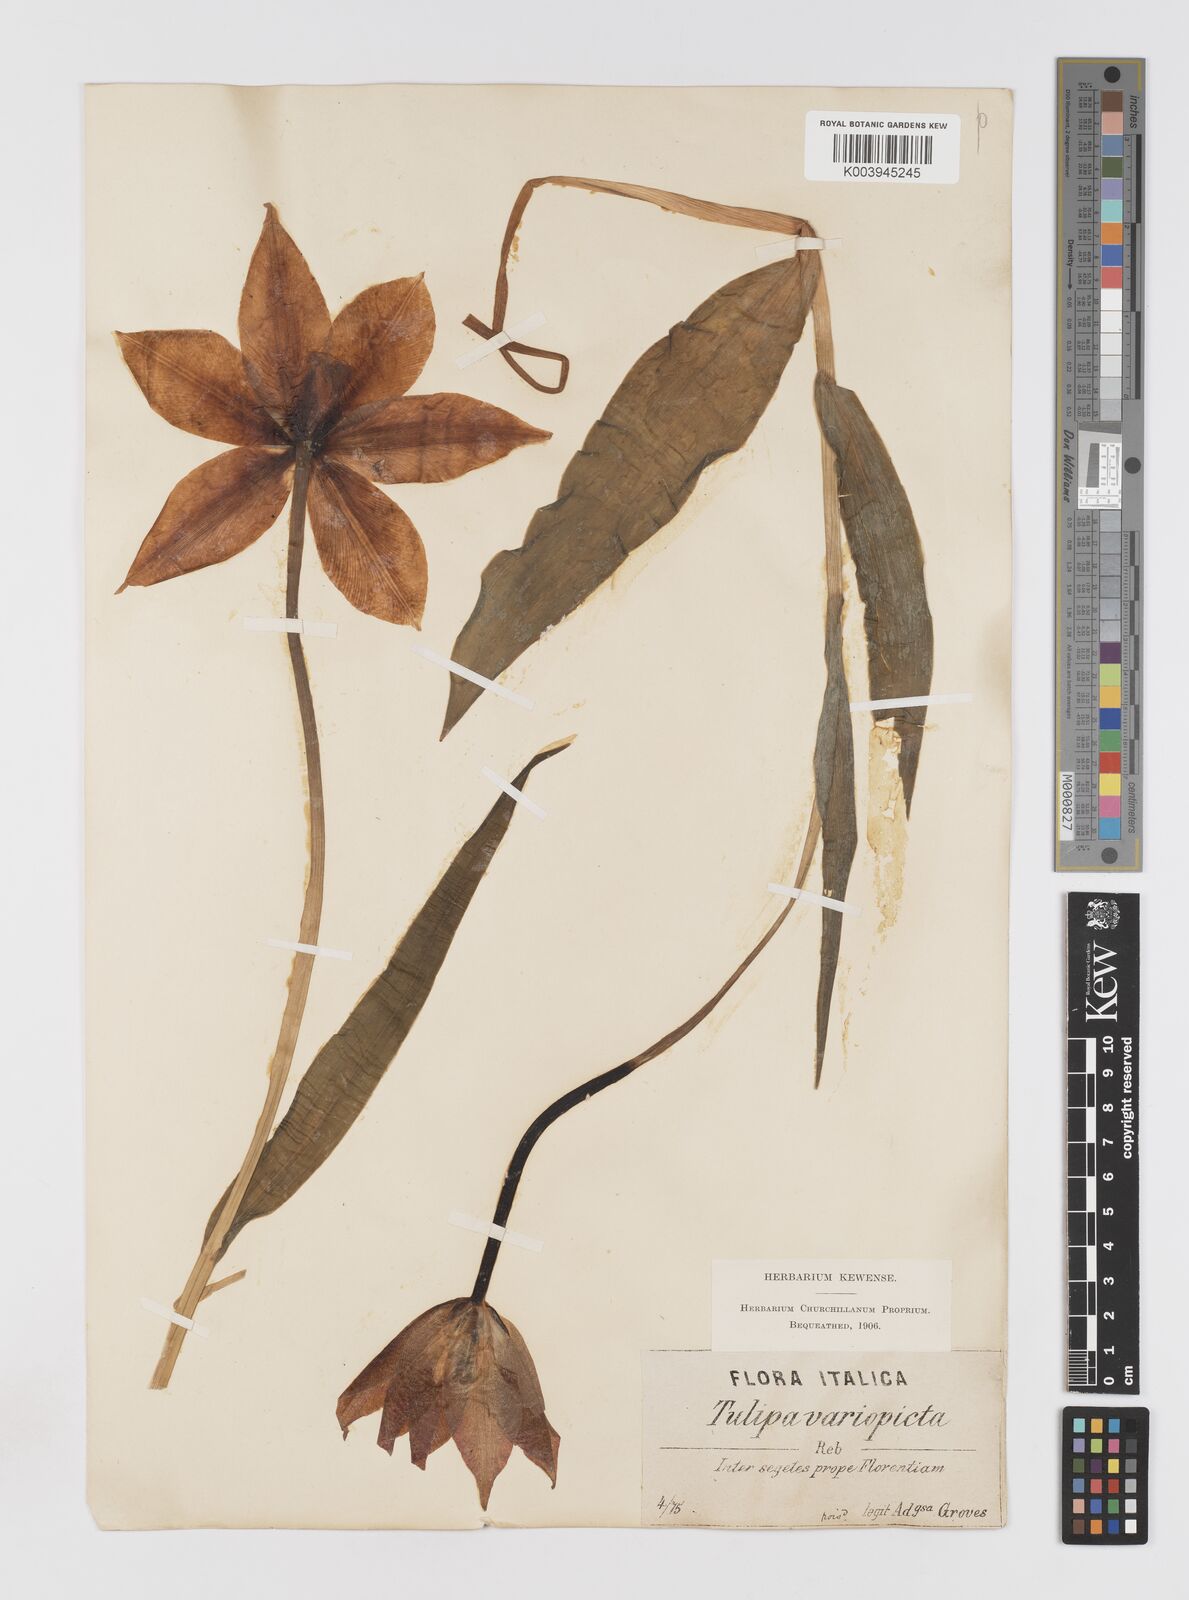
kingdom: Plantae
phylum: Tracheophyta
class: Liliopsida
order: Liliales
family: Liliaceae
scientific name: Liliaceae
